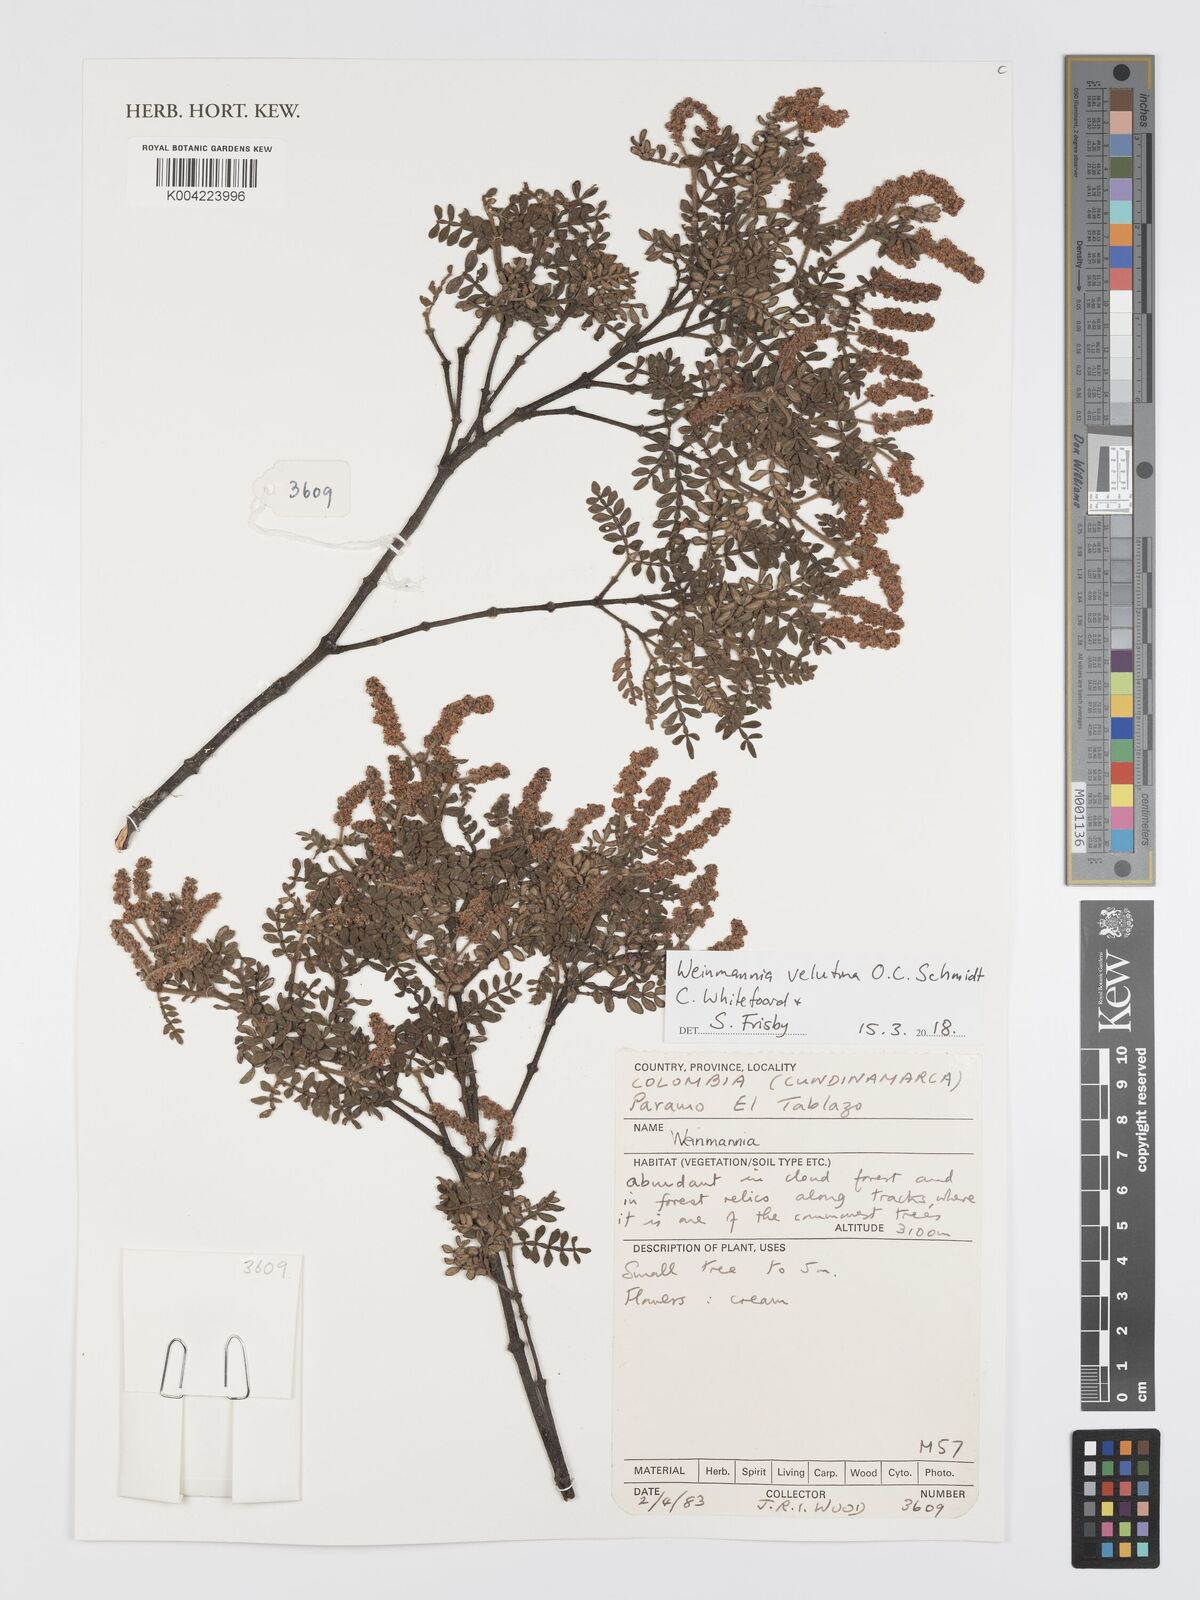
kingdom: Plantae
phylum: Tracheophyta
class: Magnoliopsida
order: Oxalidales
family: Cunoniaceae
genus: Weinmannia
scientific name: Weinmannia velutina
